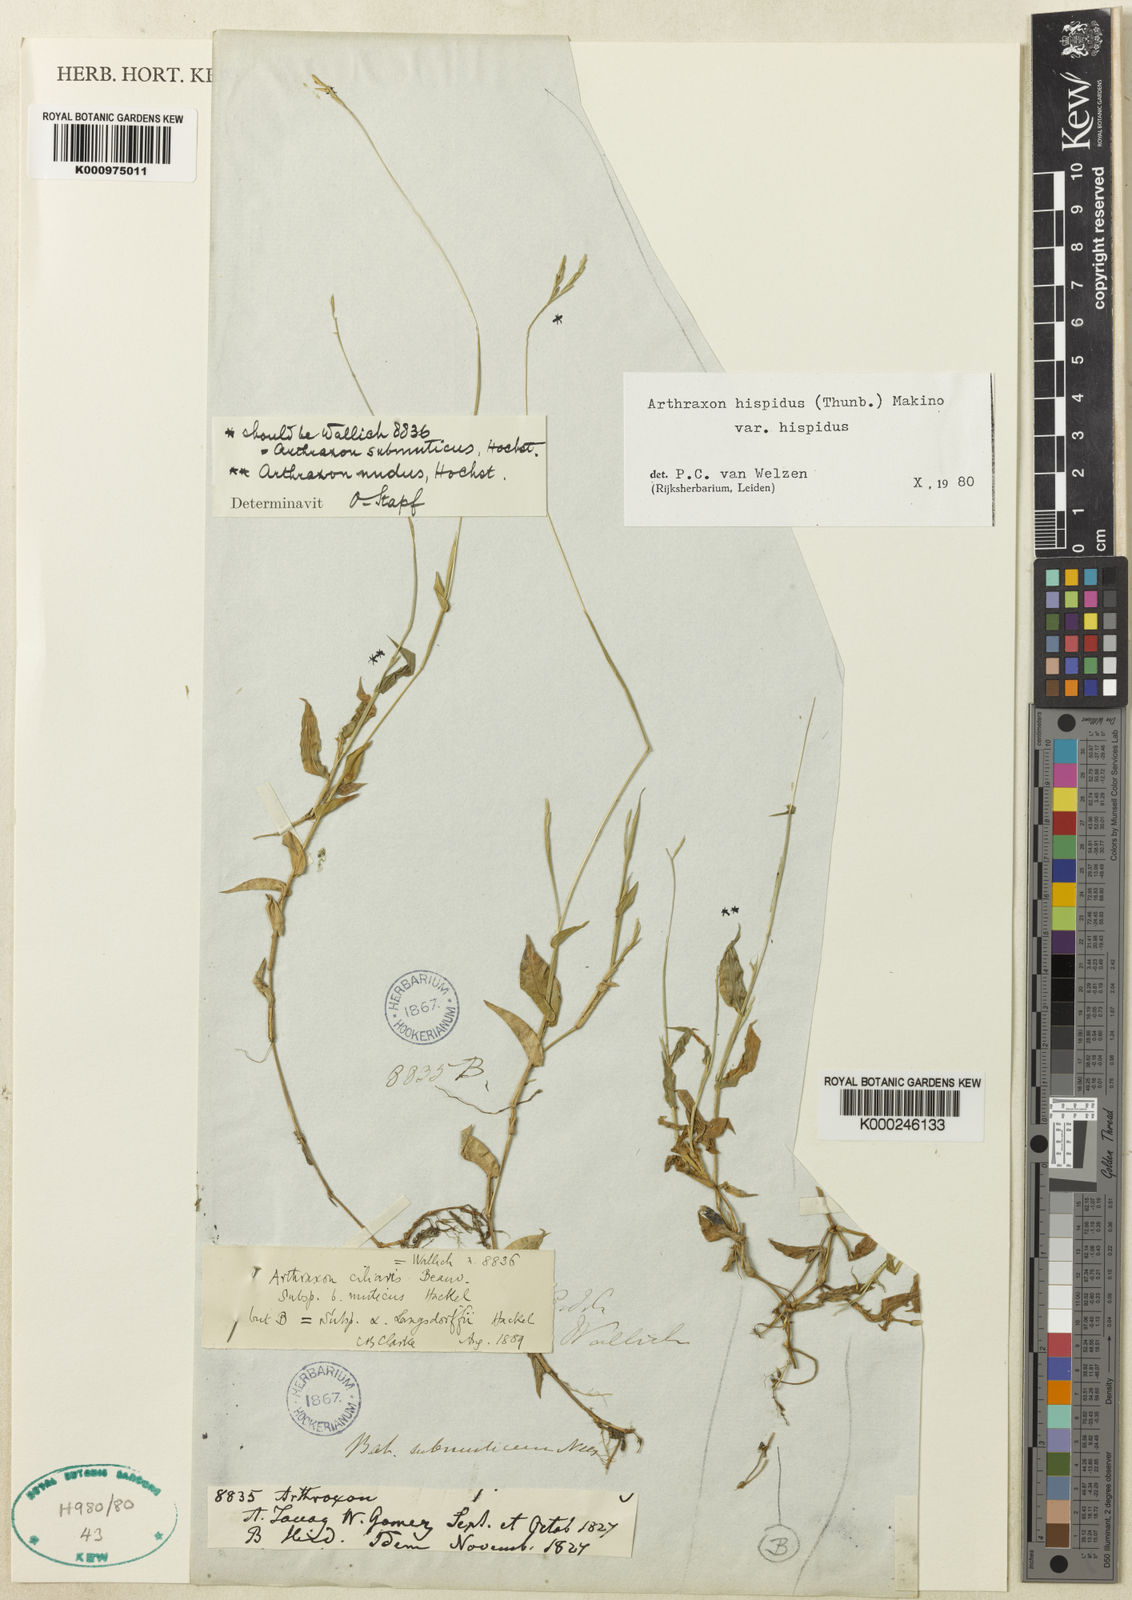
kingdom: Plantae
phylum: Tracheophyta
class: Liliopsida
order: Poales
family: Poaceae
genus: Arthraxon
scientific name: Arthraxon nudus
